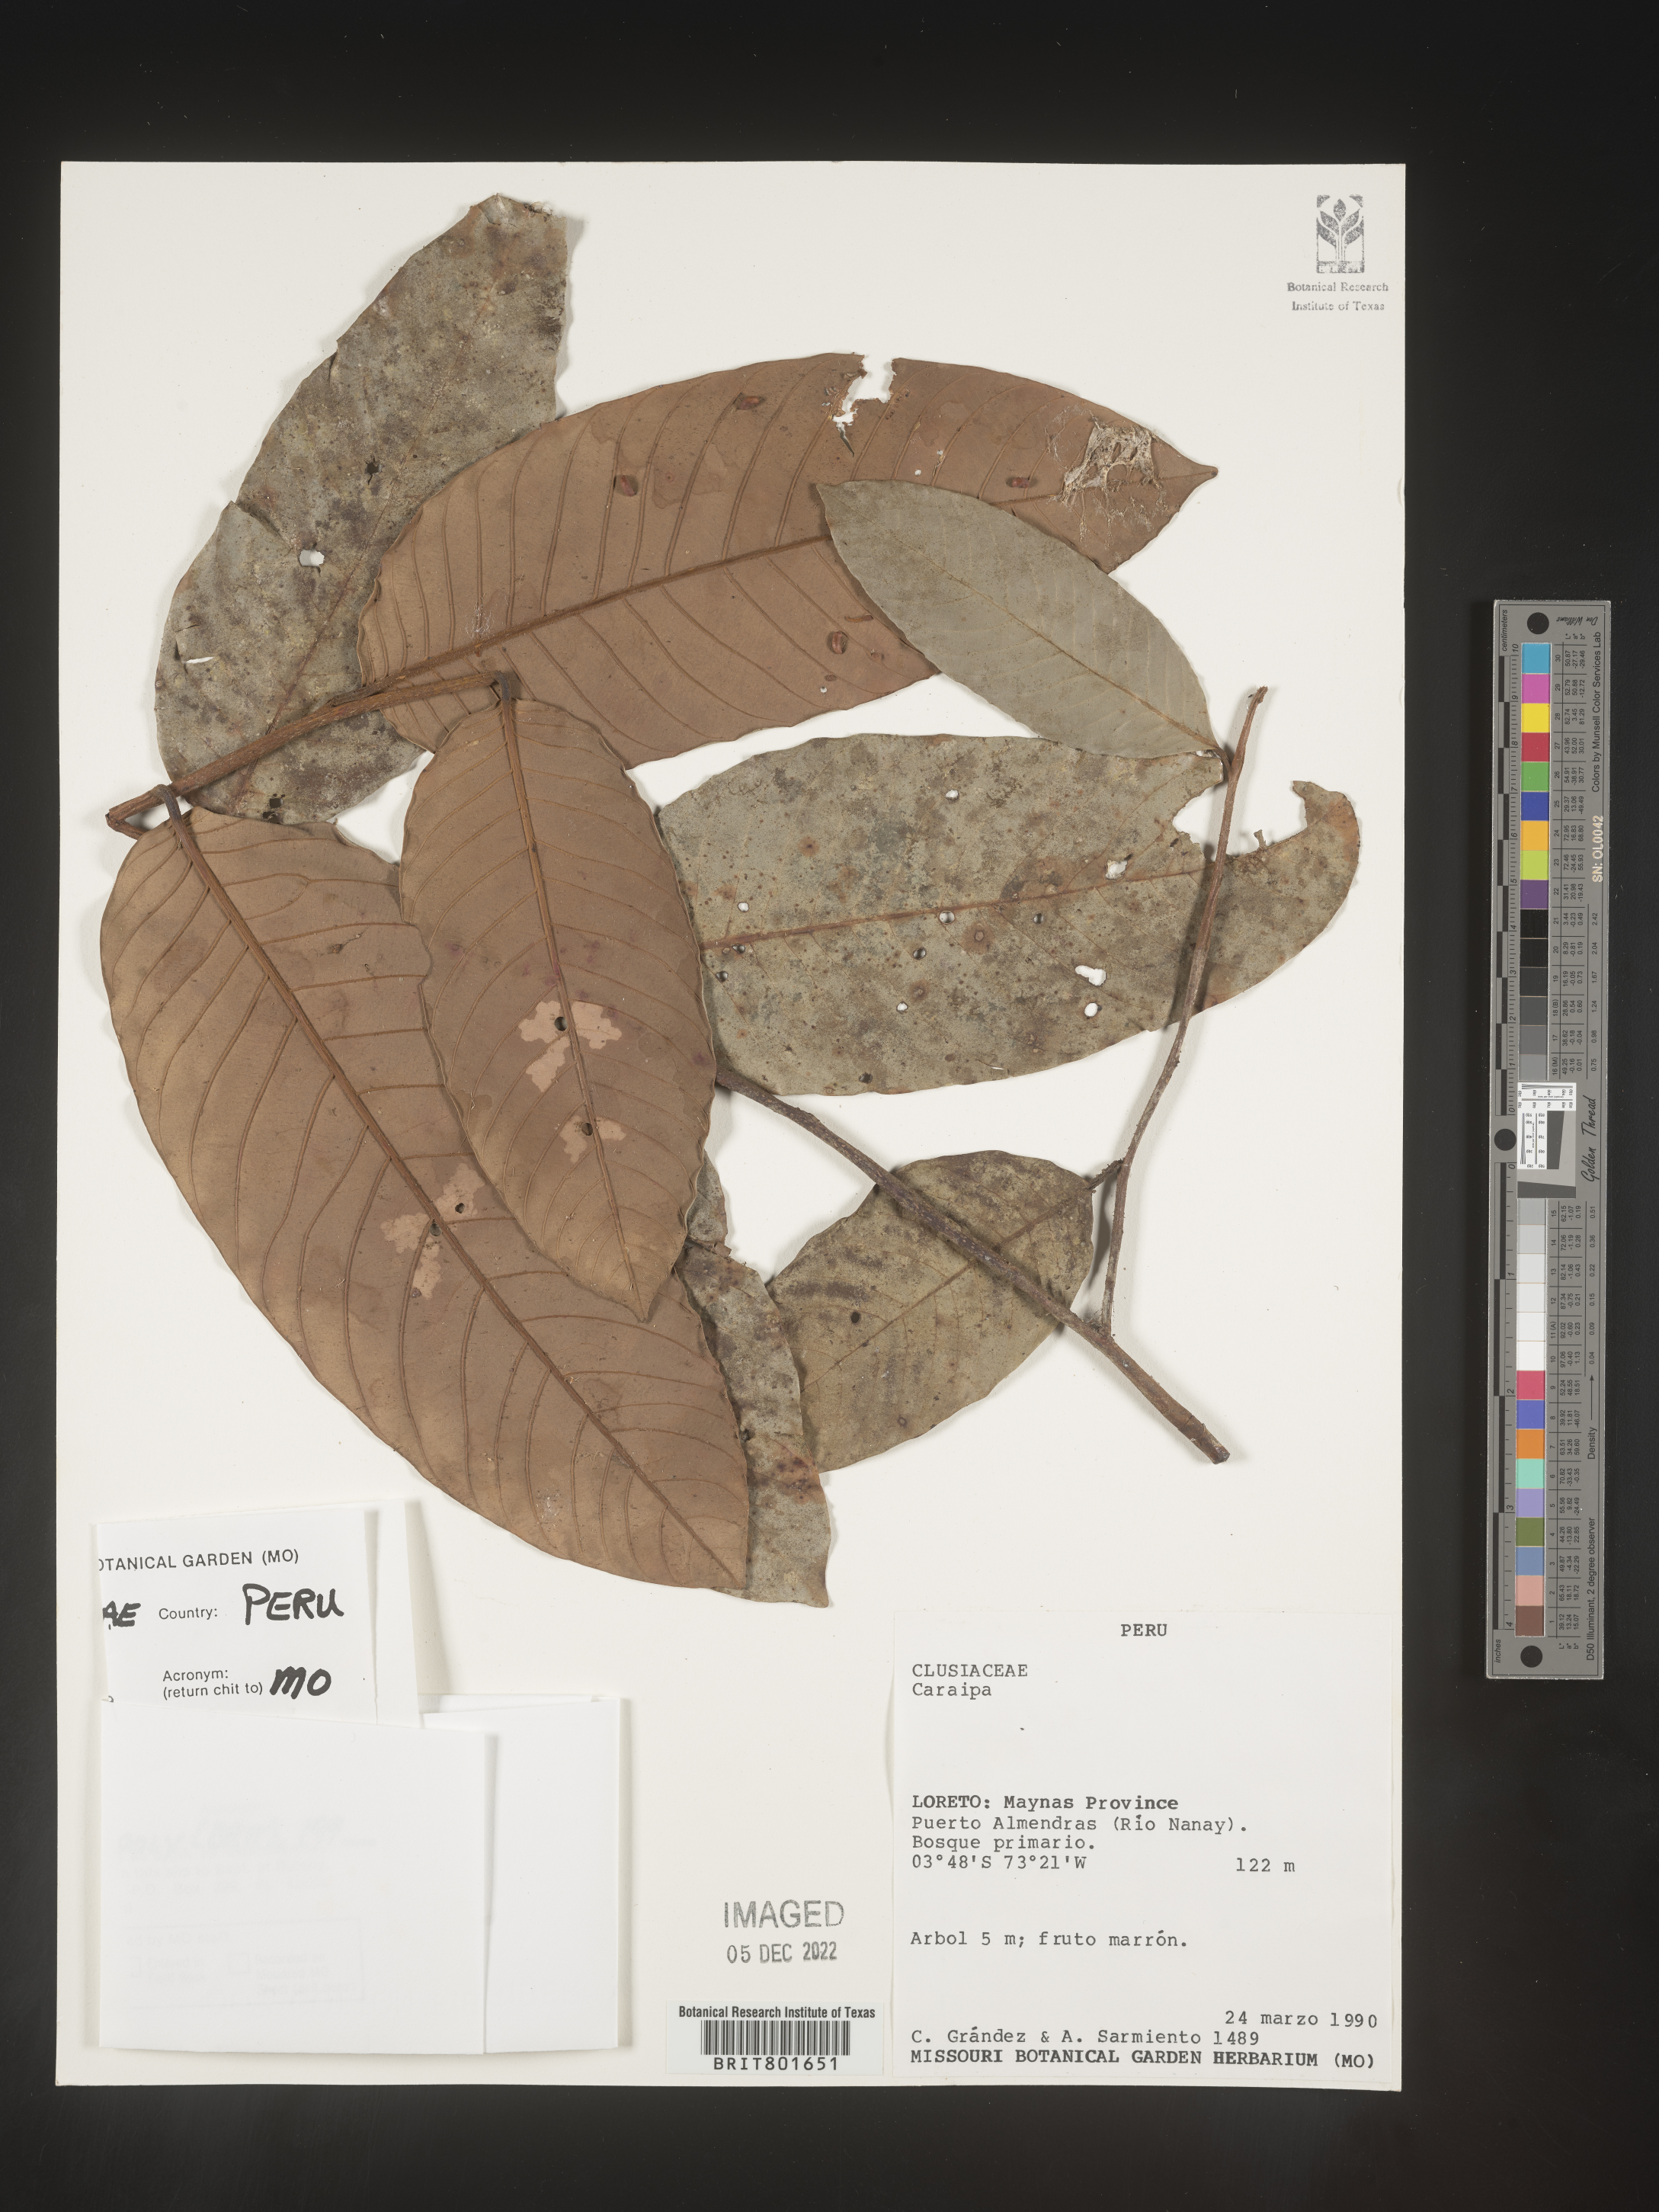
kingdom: Plantae
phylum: Tracheophyta
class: Magnoliopsida
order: Malpighiales
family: Calophyllaceae
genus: Caraipa
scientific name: Caraipa
